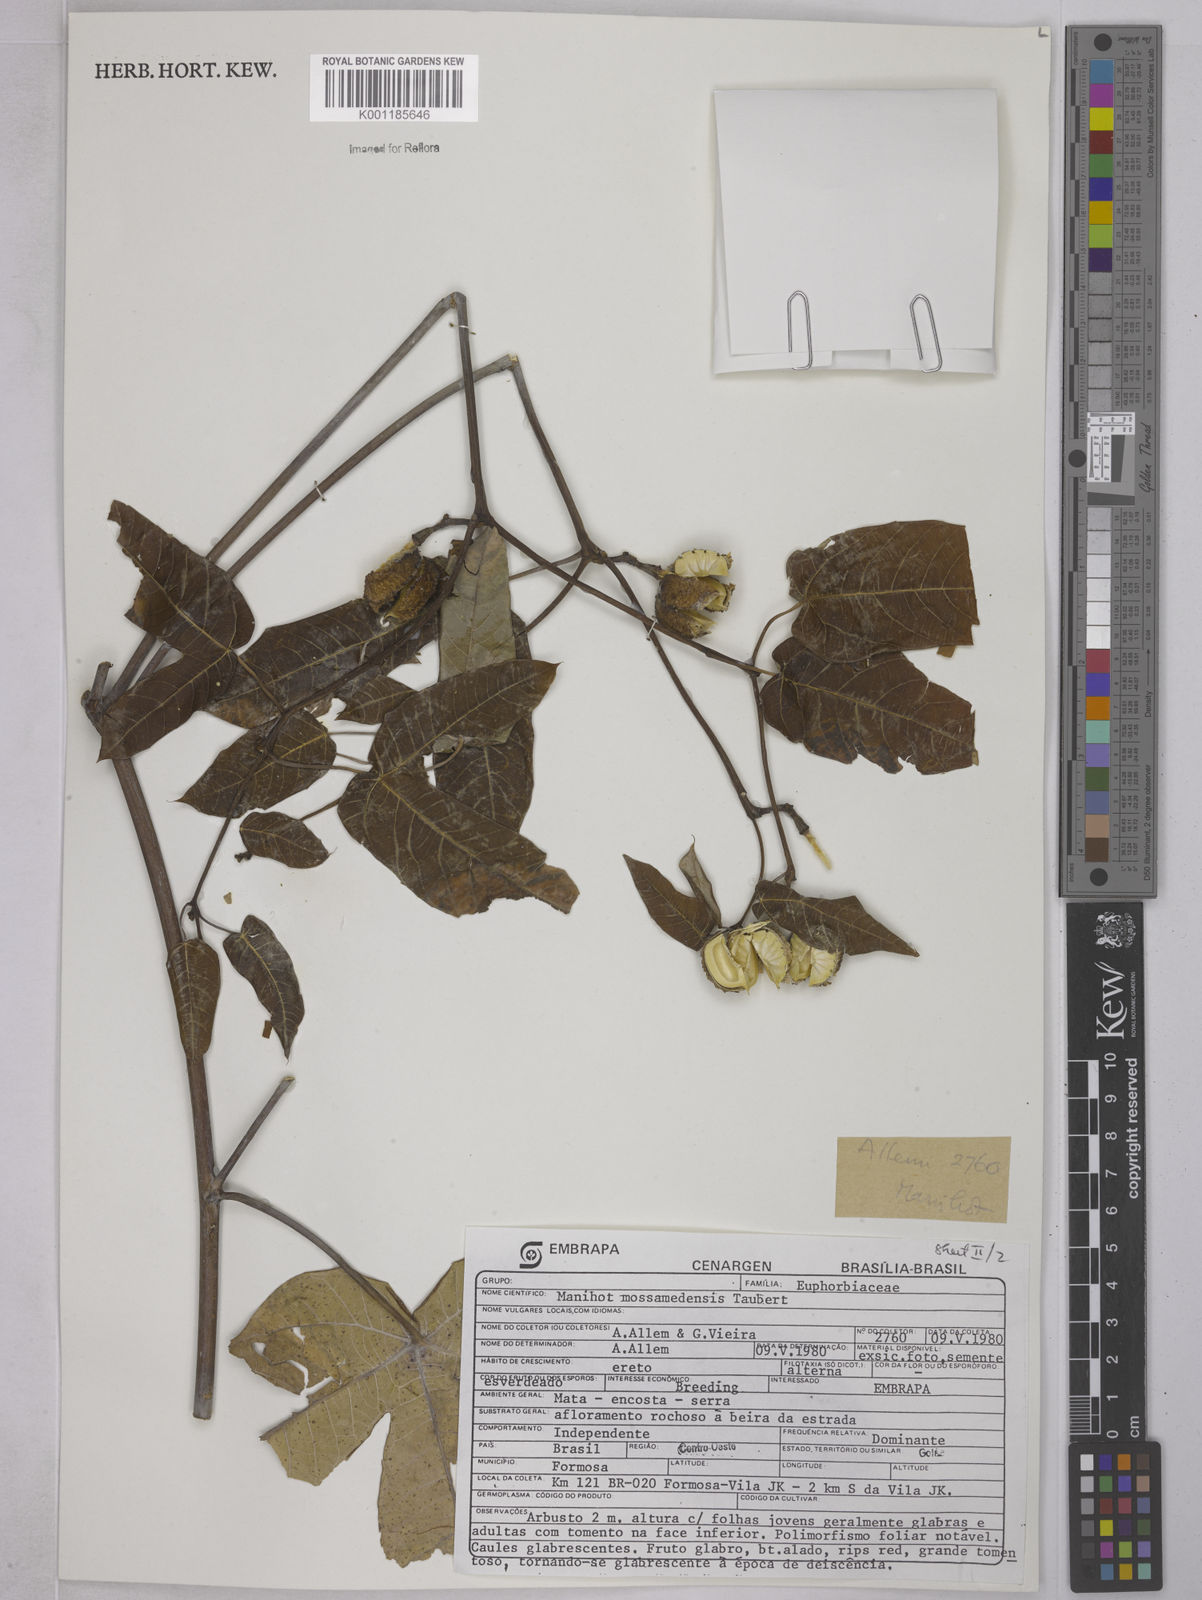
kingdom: Plantae
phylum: Tracheophyta
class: Magnoliopsida
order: Malpighiales
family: Euphorbiaceae
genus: Manihot
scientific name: Manihot cecropiifolia
